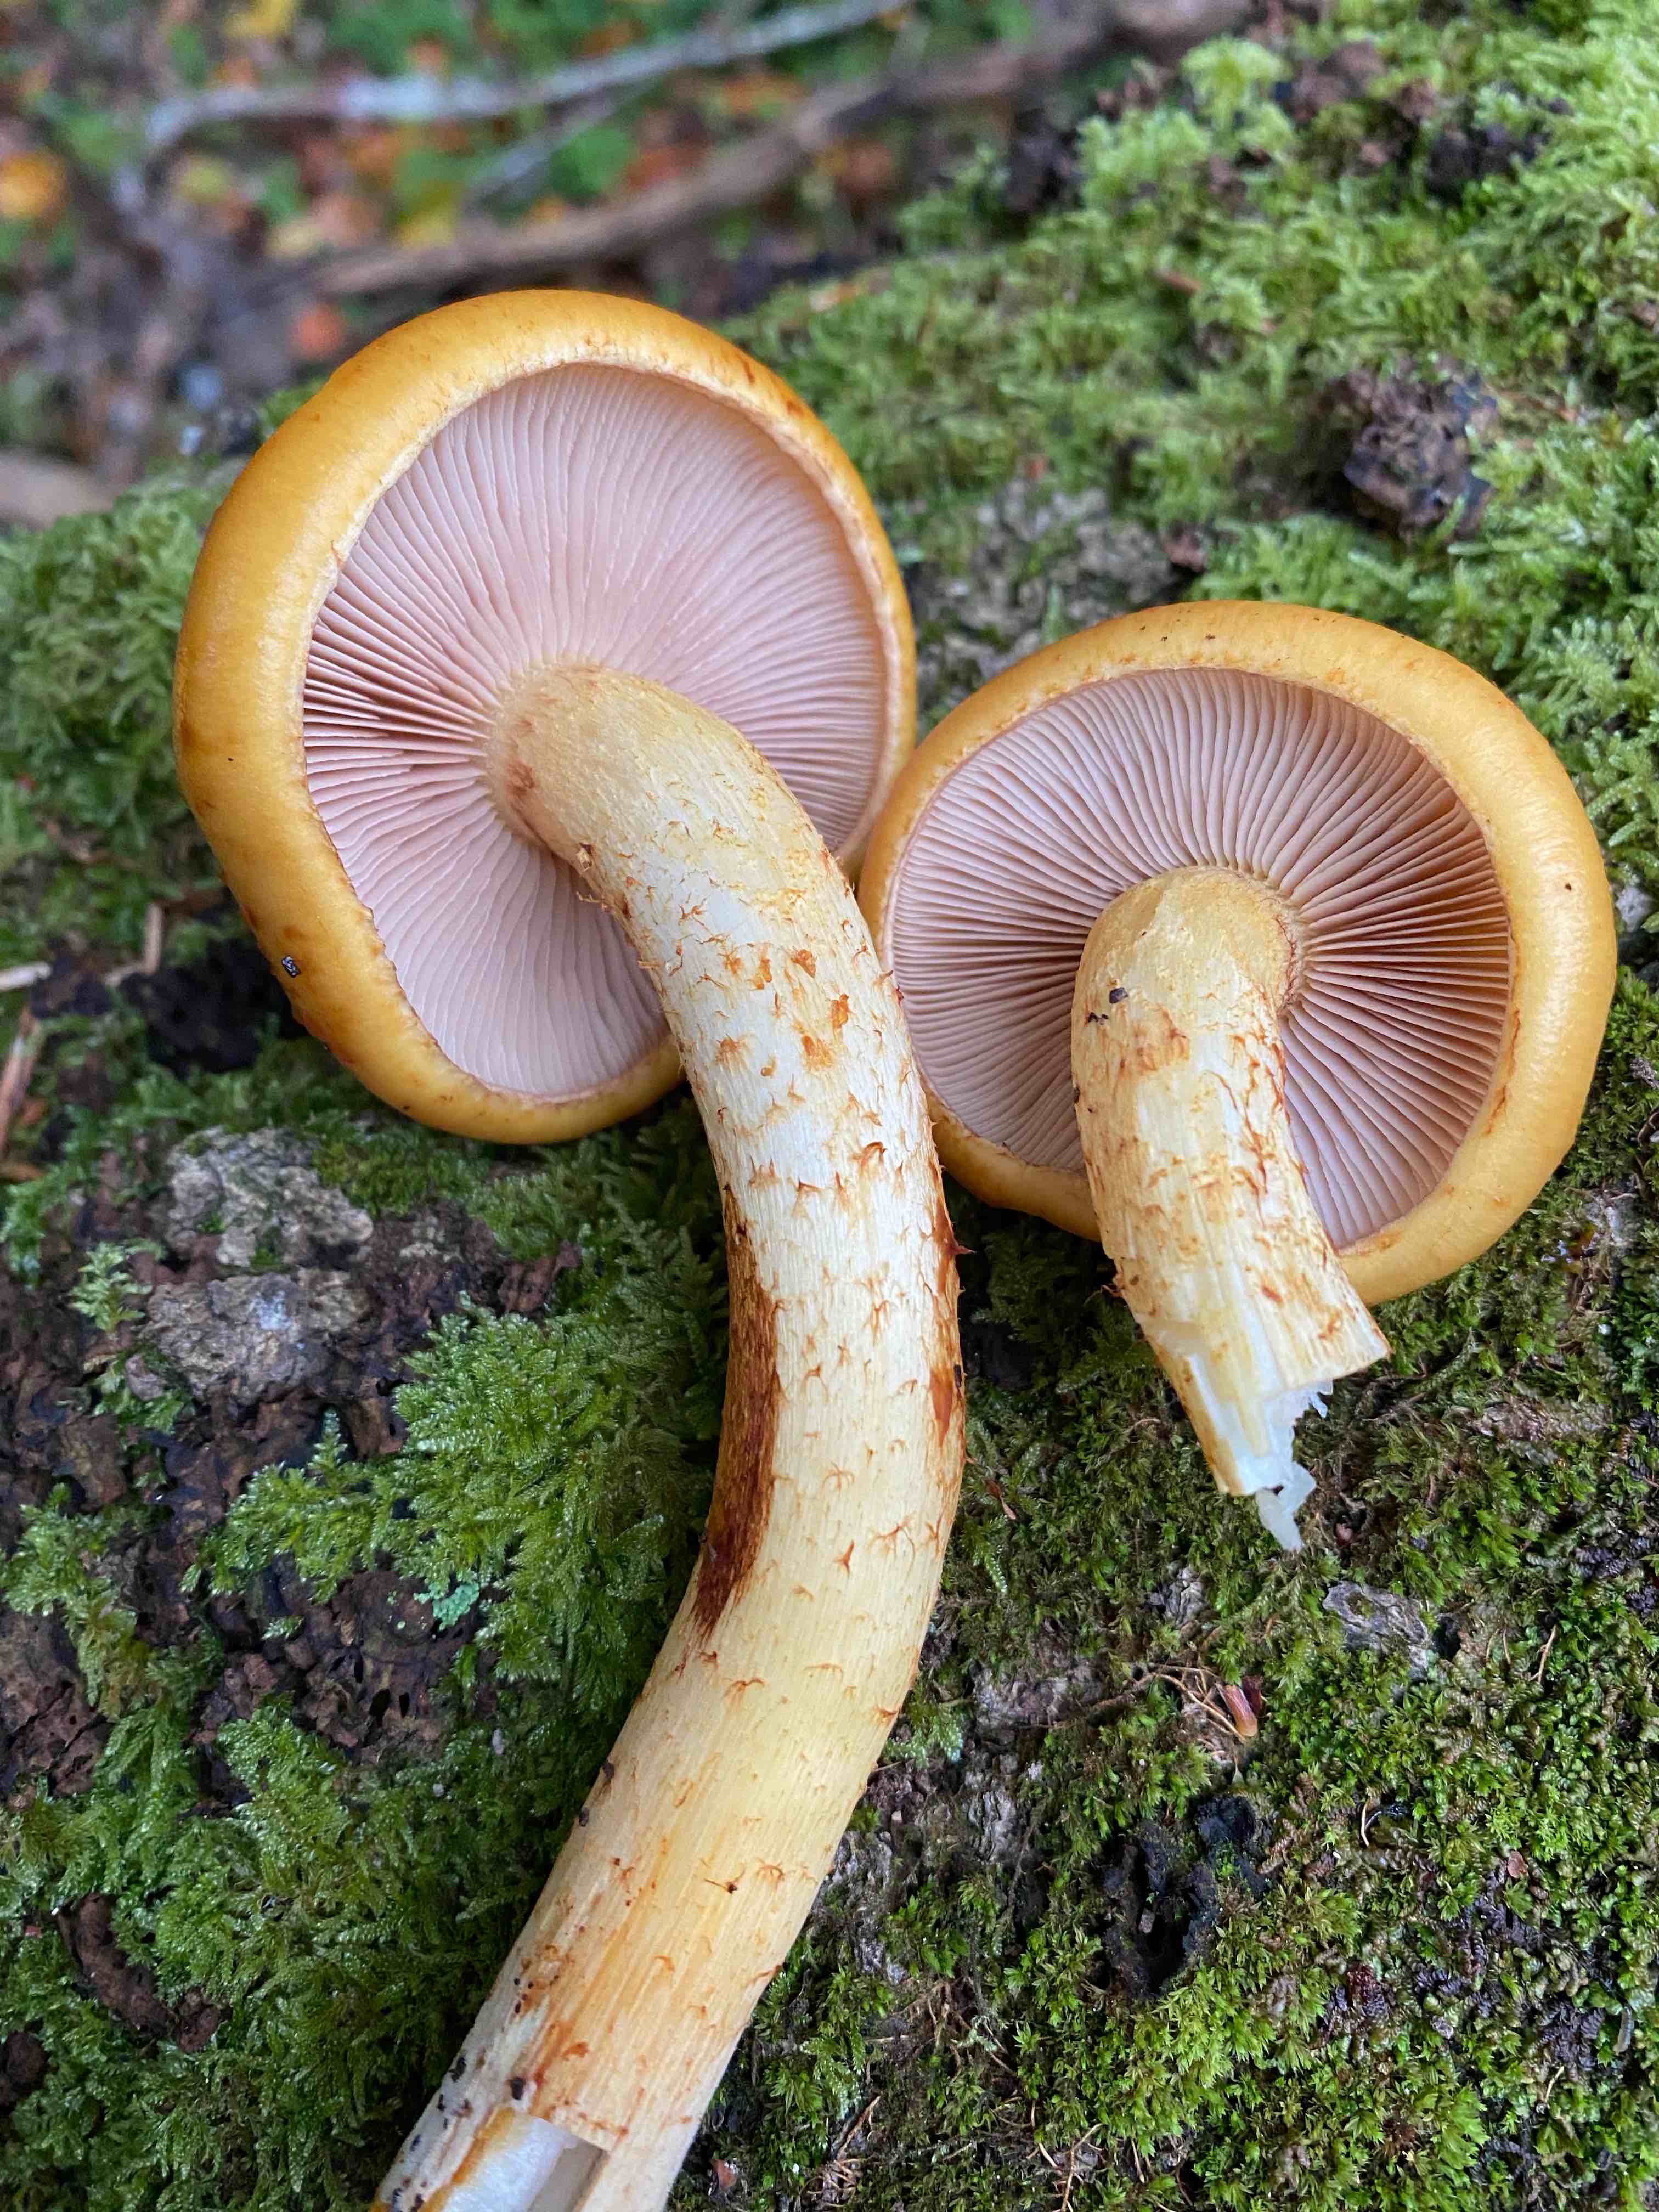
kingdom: Fungi
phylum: Basidiomycota
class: Agaricomycetes
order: Agaricales
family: Strophariaceae
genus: Pholiota
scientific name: Pholiota adiposa
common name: højtsiddende skælhat
